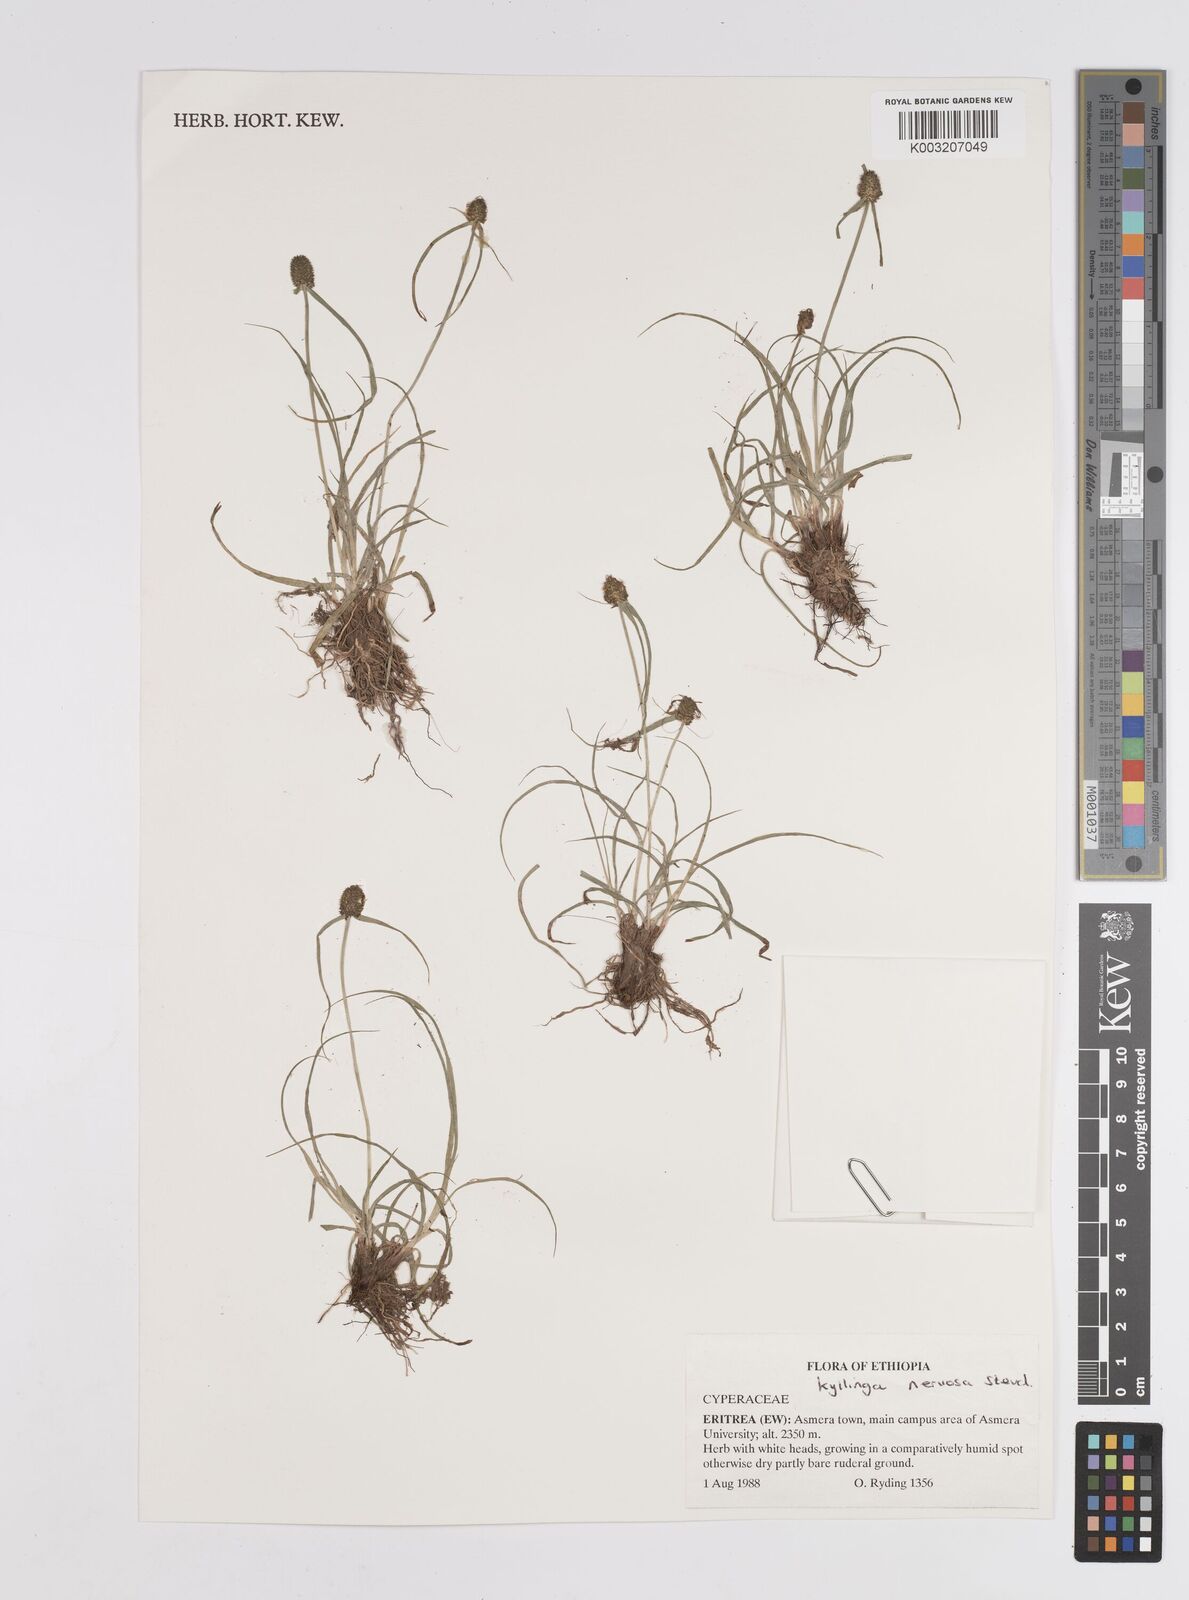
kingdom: Plantae
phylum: Tracheophyta
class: Liliopsida
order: Poales
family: Cyperaceae
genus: Cyperus
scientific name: Cyperus costatus
